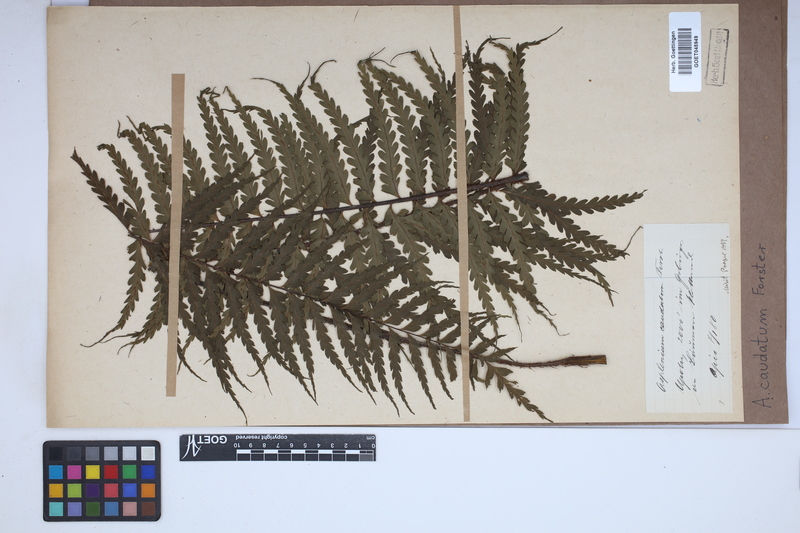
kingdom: Plantae
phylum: Tracheophyta
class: Polypodiopsida
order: Polypodiales
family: Aspleniaceae
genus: Asplenium
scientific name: Asplenium caudatum
